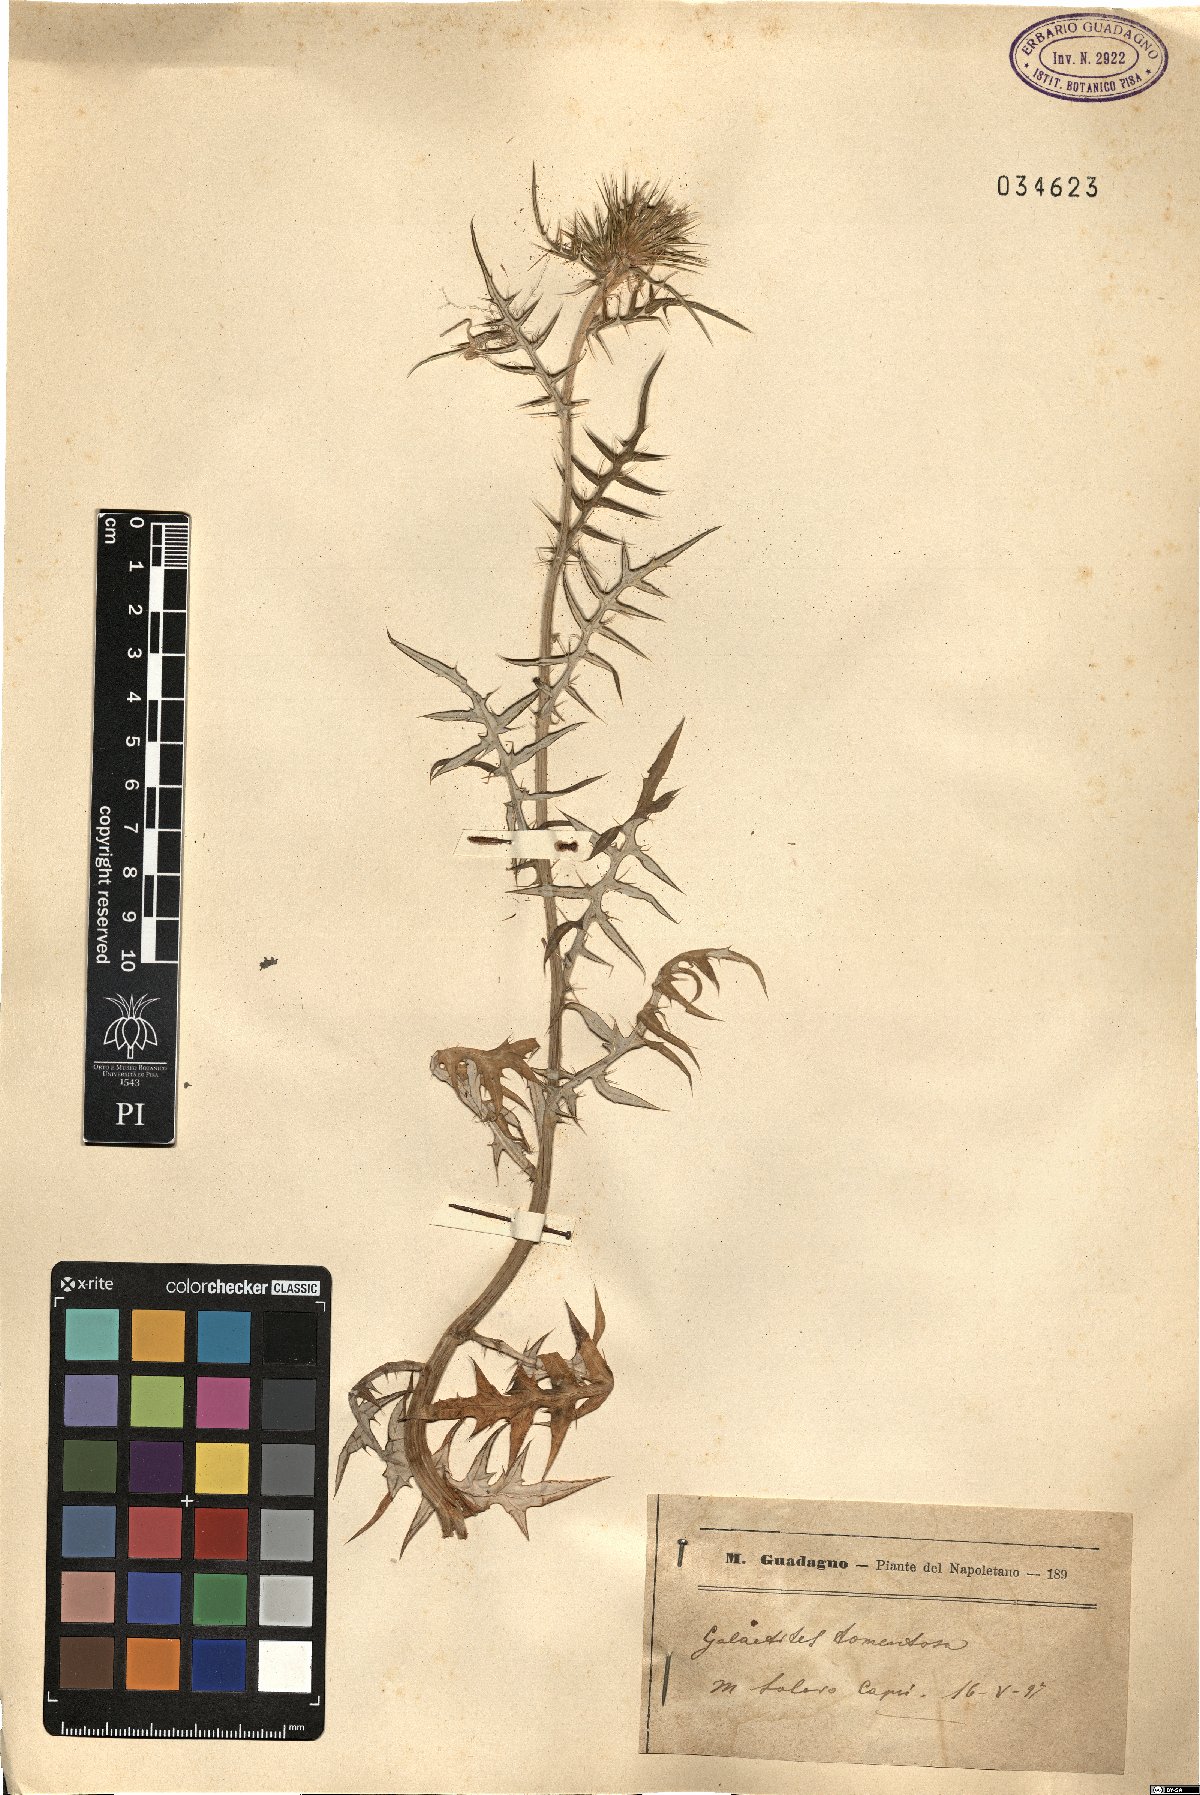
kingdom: Plantae
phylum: Tracheophyta
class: Magnoliopsida
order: Asterales
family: Asteraceae
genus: Galactites
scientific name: Galactites tomentosa
